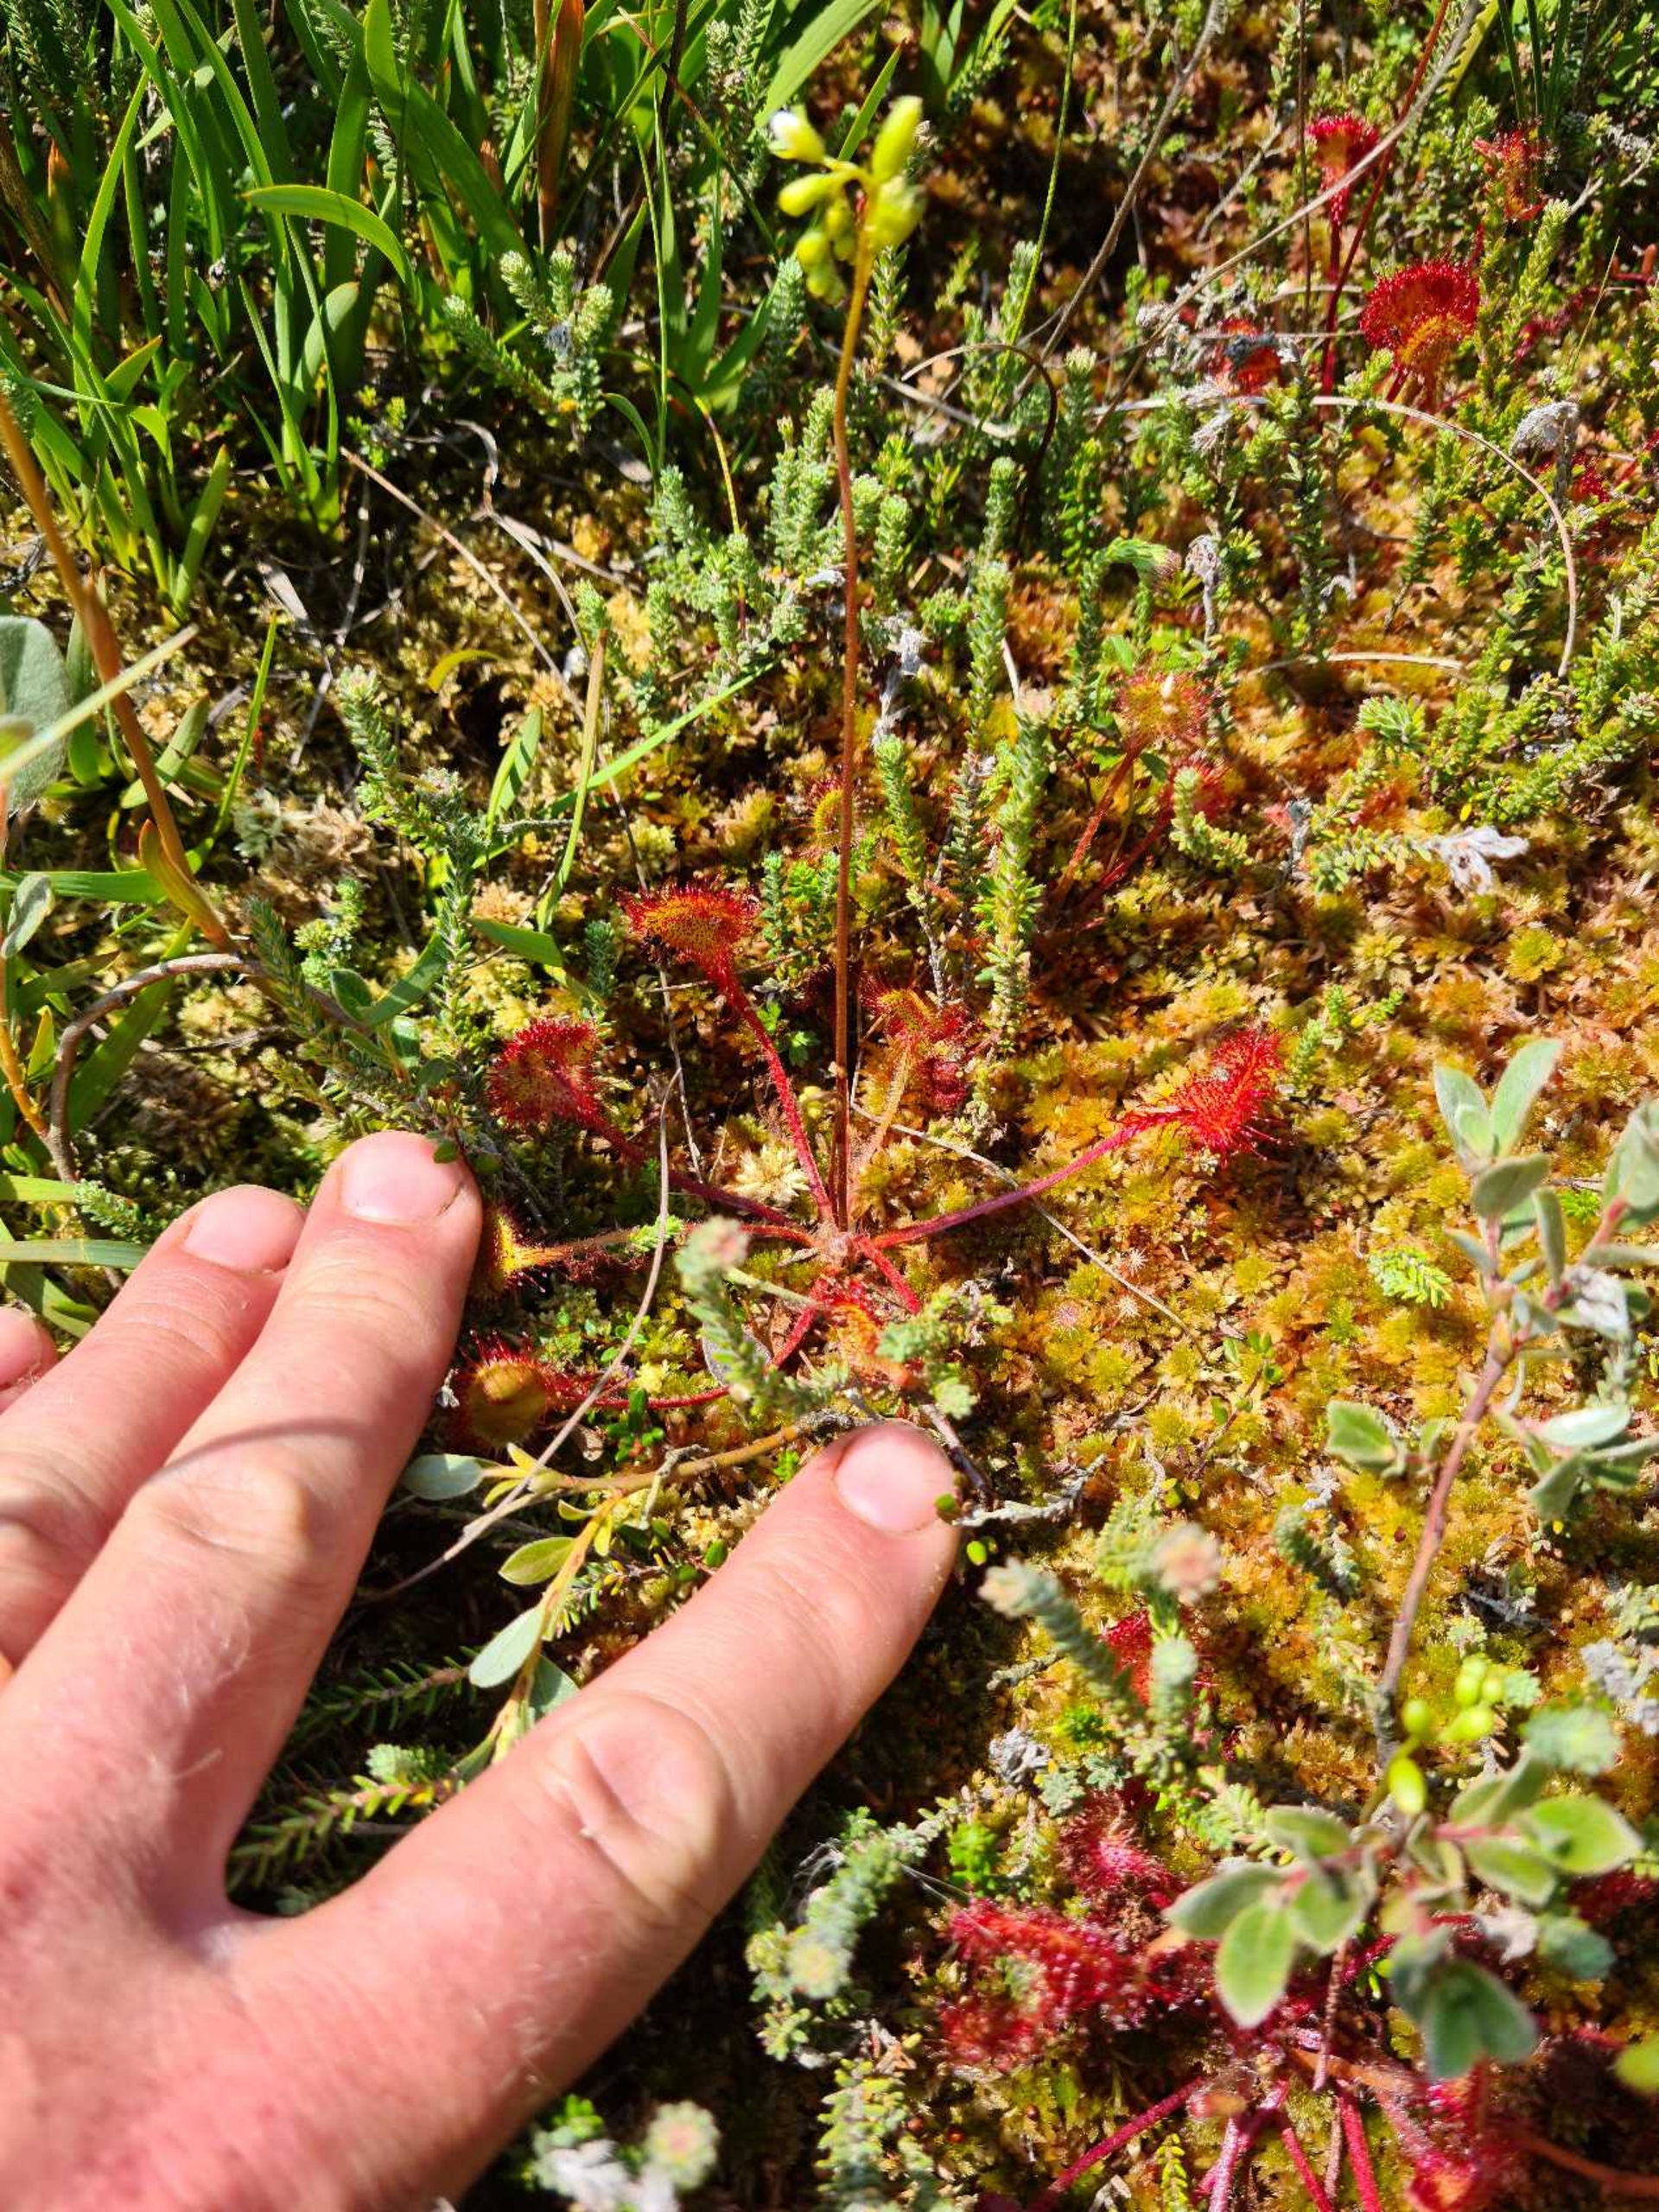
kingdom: Plantae
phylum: Tracheophyta
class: Magnoliopsida
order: Caryophyllales
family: Droseraceae
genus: Drosera
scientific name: Drosera rotundifolia
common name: Rundbladet soldug
